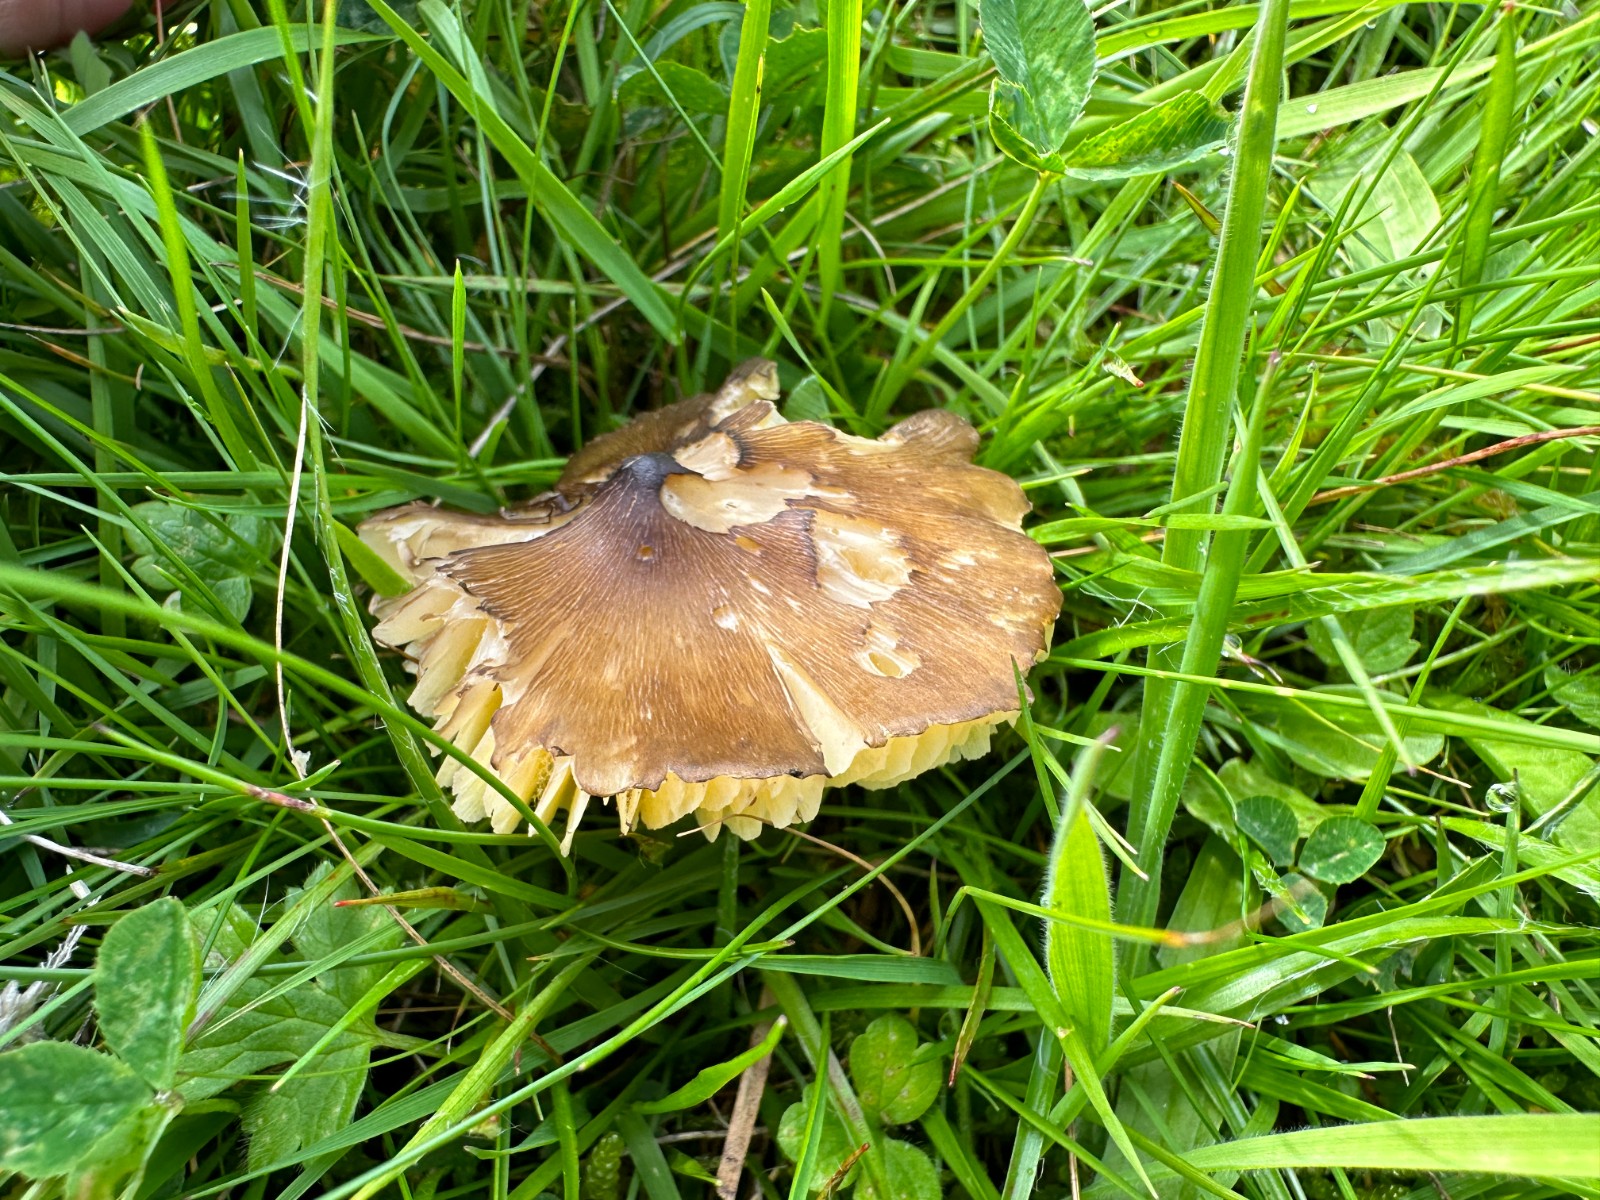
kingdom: Fungi
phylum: Basidiomycota
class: Agaricomycetes
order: Agaricales
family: Hygrophoraceae
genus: Hygrocybe
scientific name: Hygrocybe spadicea
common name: daddelbrun vokshat
